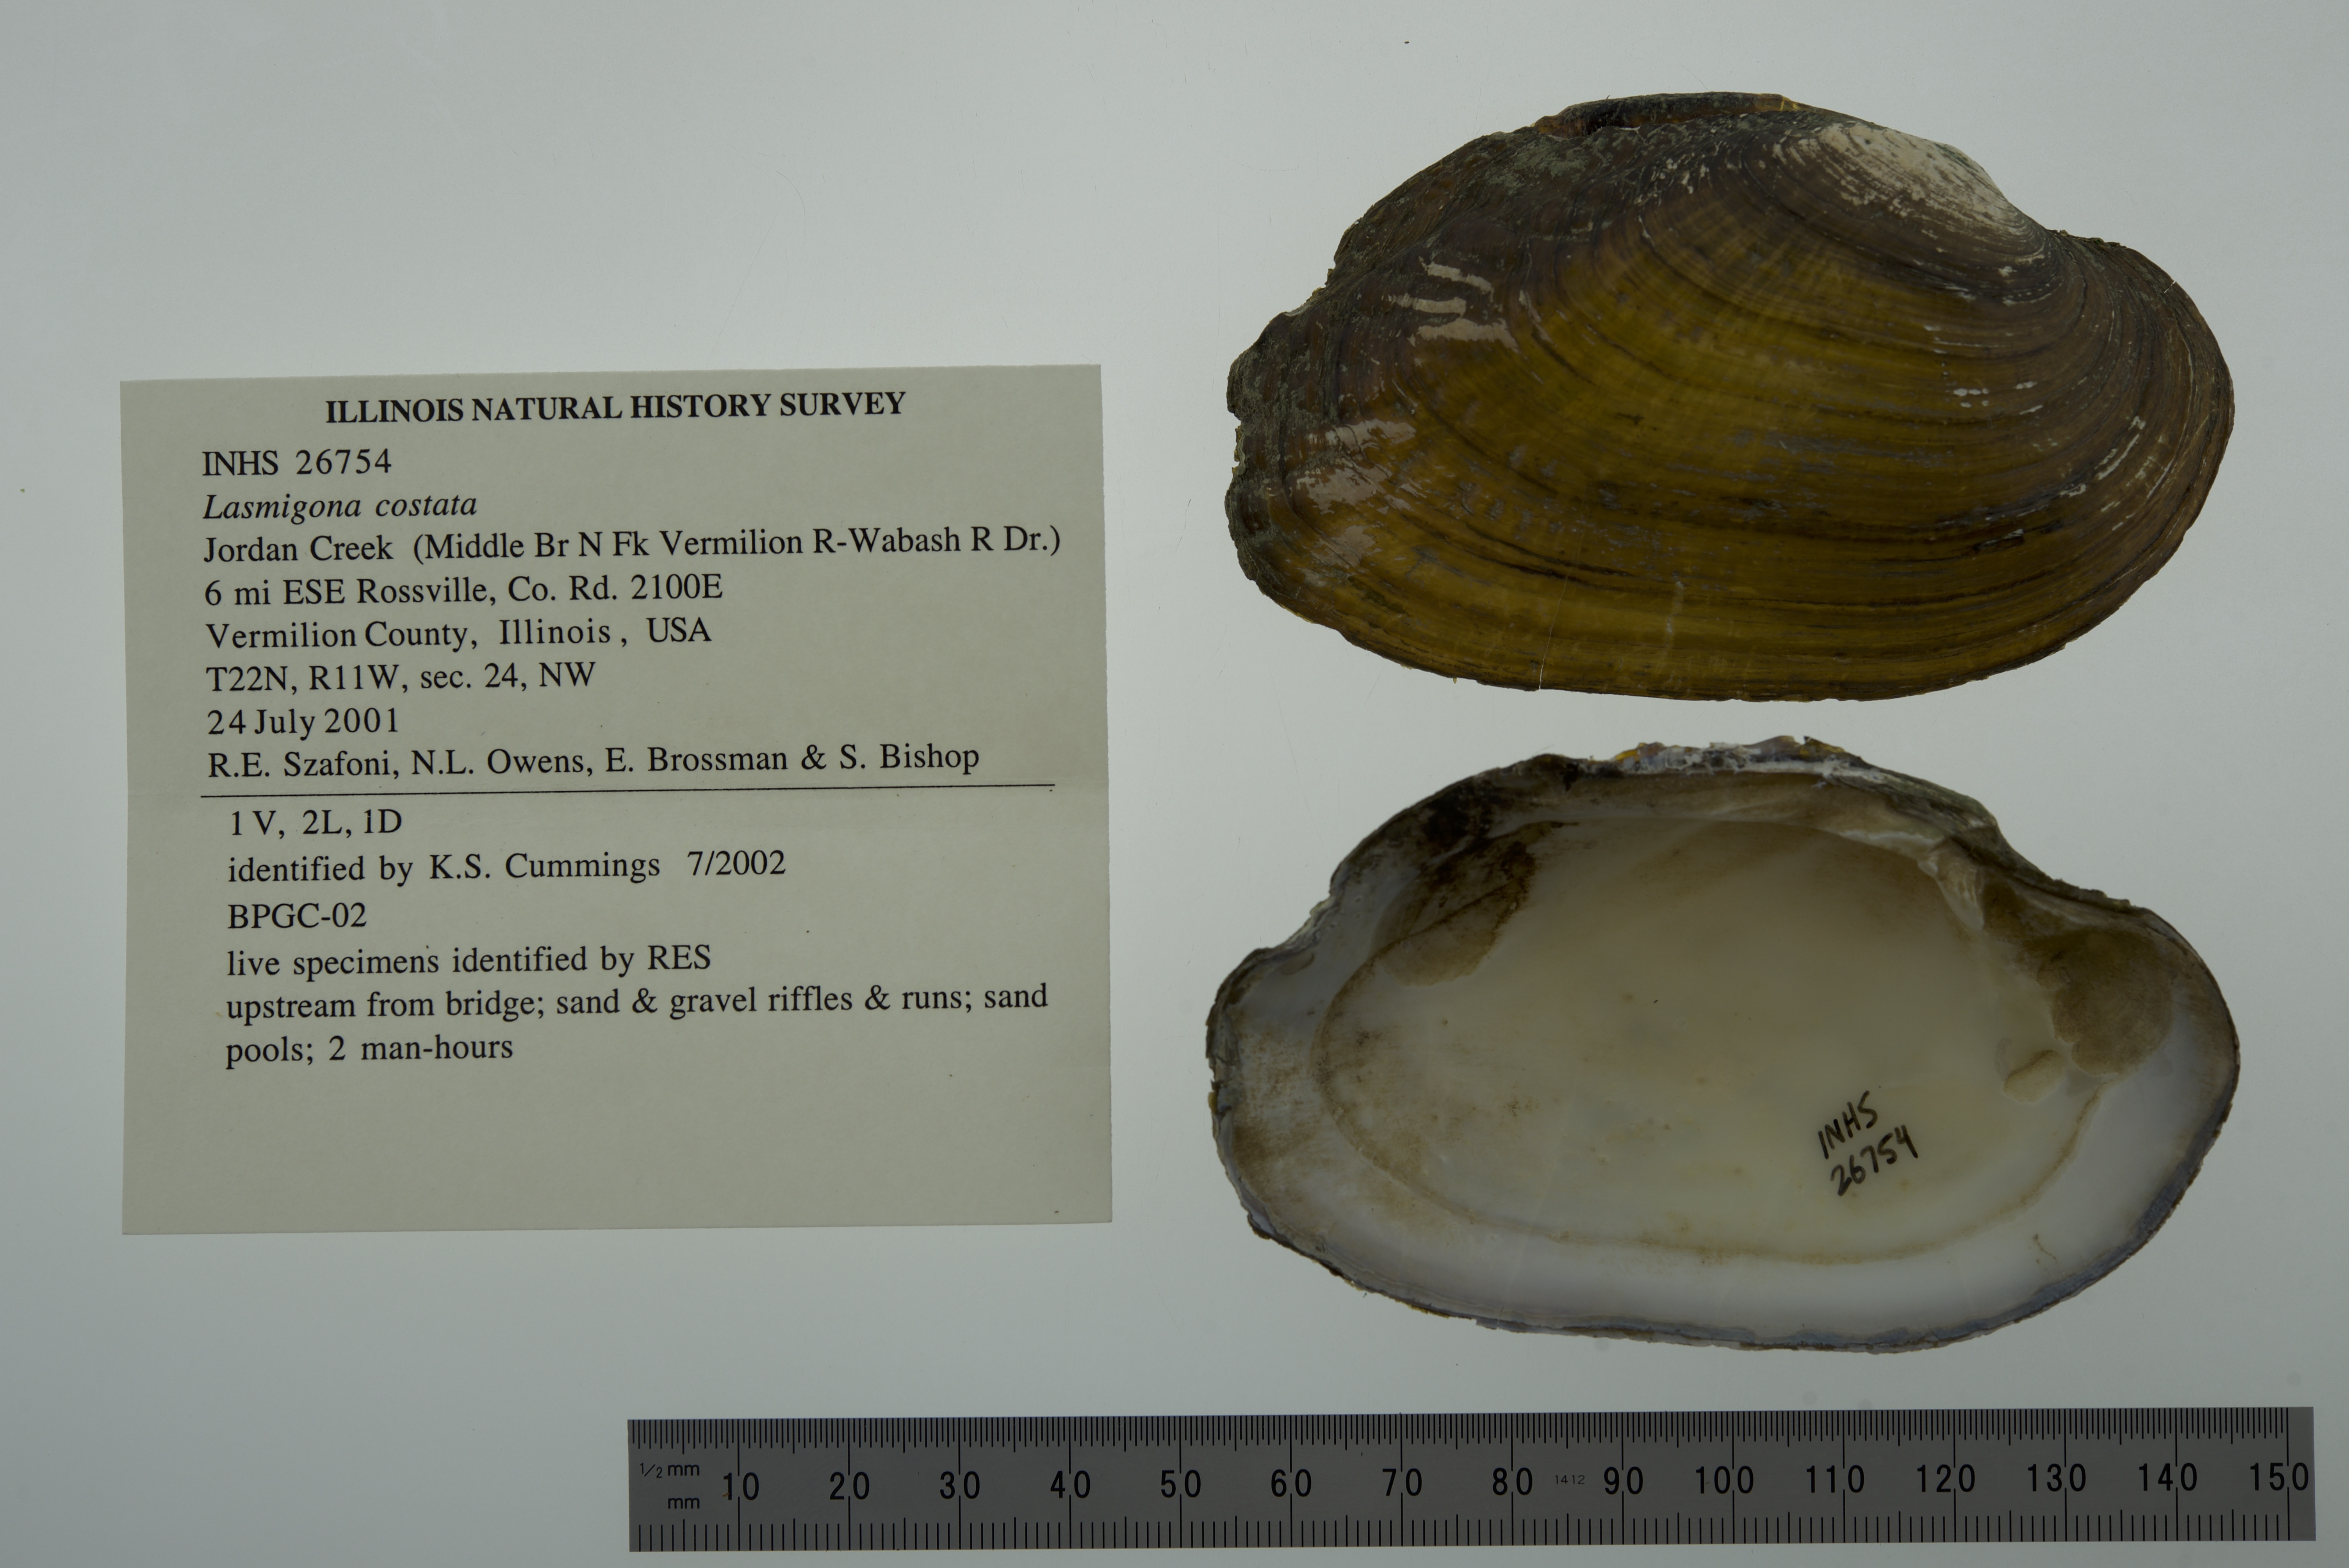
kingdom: Animalia
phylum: Mollusca
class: Bivalvia
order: Unionida
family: Unionidae
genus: Lasmigona
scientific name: Lasmigona costata
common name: Flutedshell
